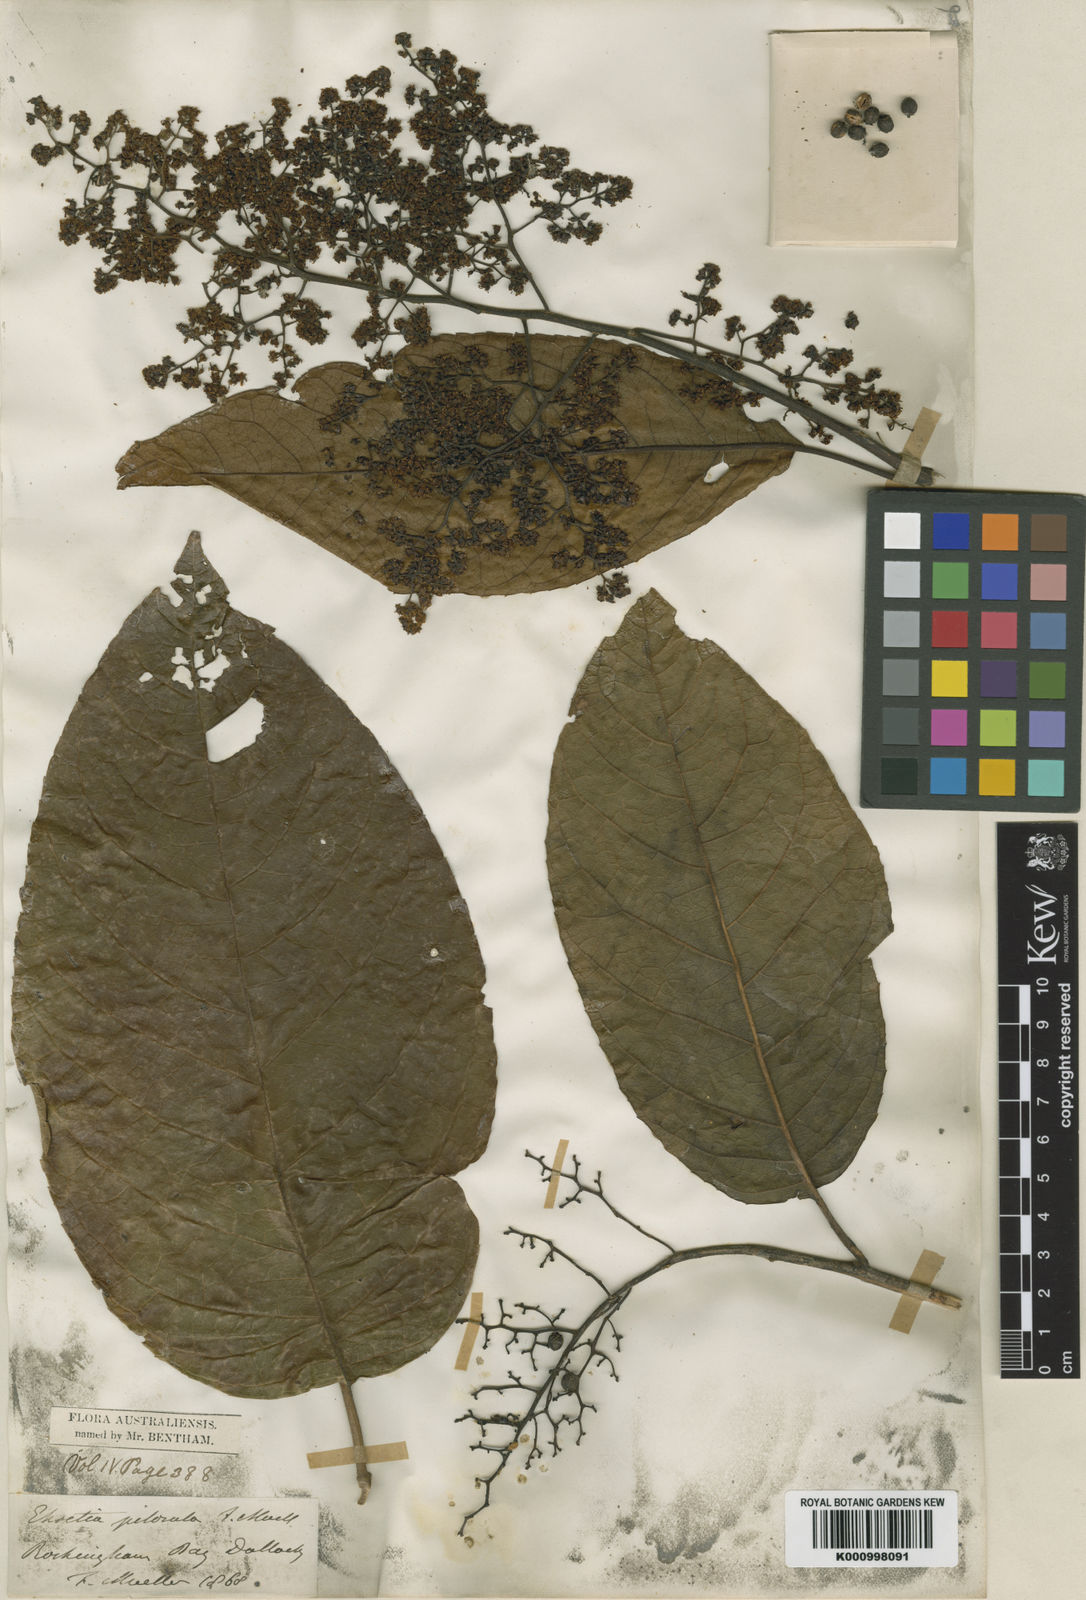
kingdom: Plantae
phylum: Tracheophyta
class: Magnoliopsida
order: Boraginales
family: Ehretiaceae
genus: Ehretia
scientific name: Ehretia acuminata
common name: Kodo wood
